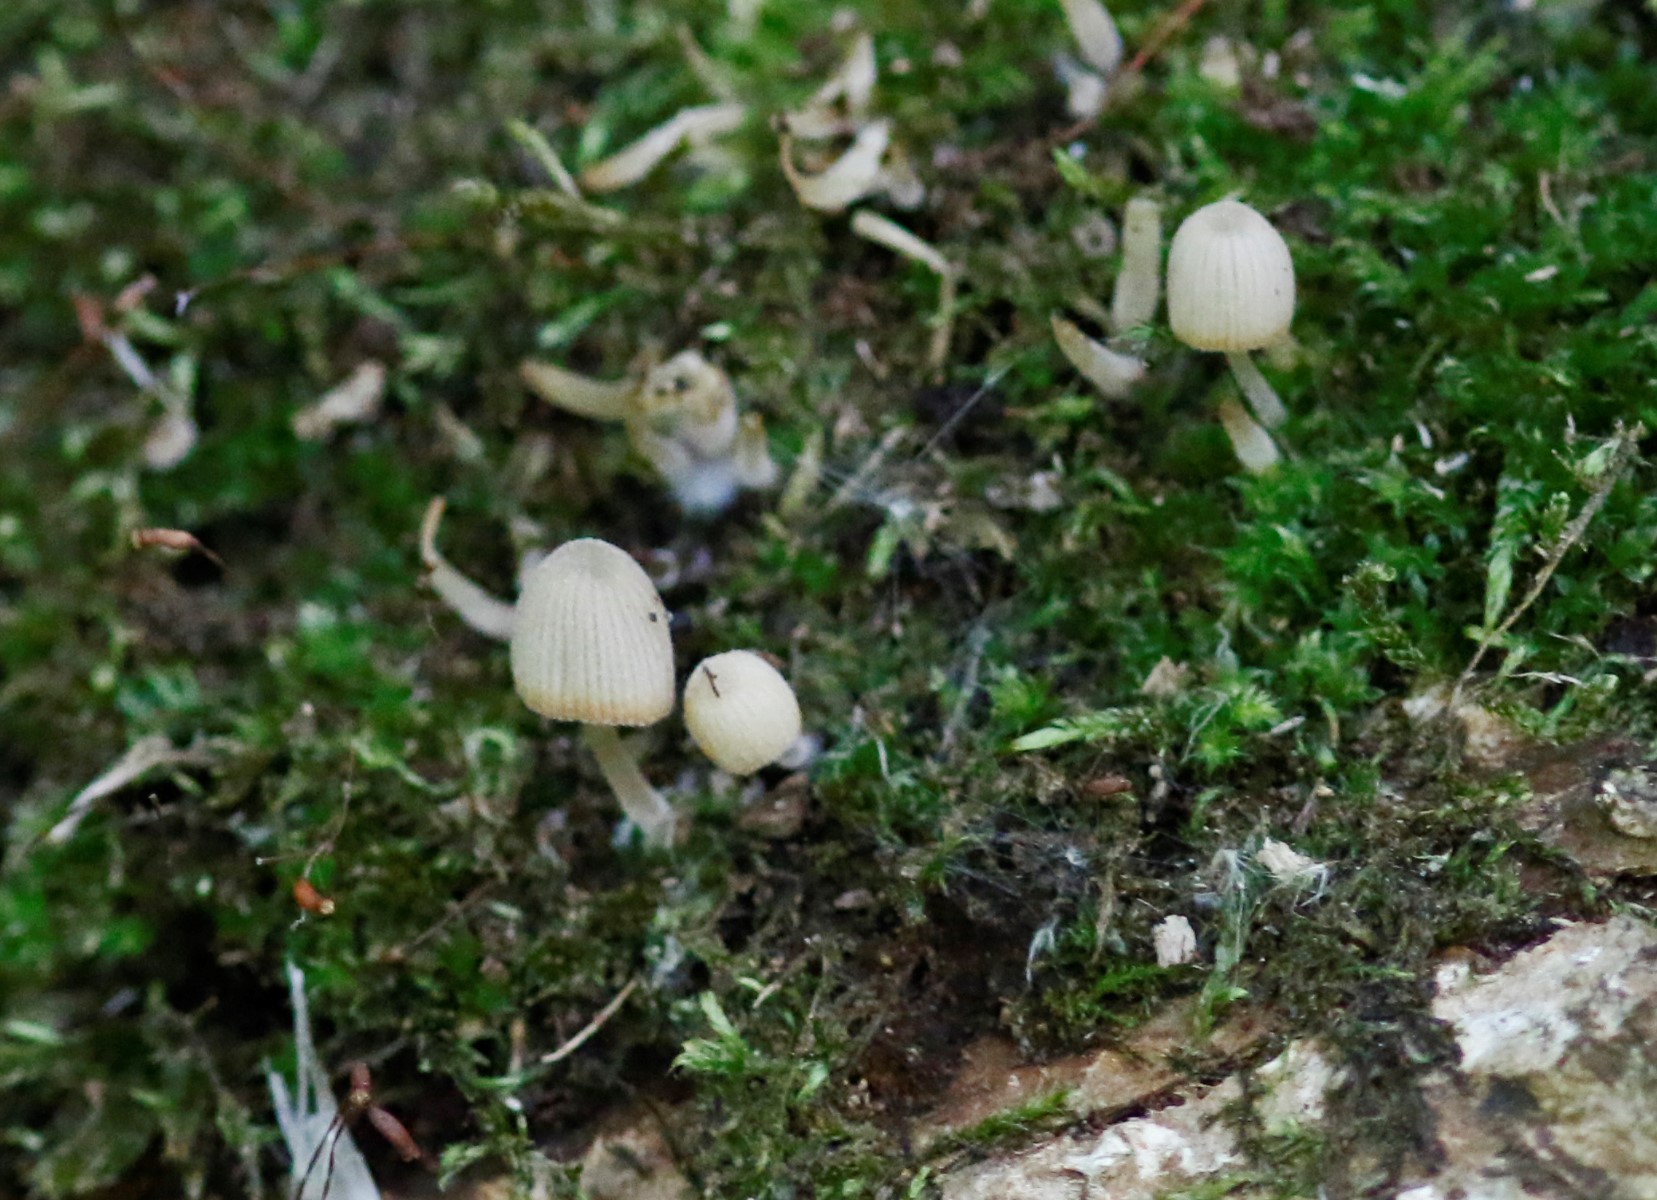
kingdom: Fungi
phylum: Basidiomycota
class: Agaricomycetes
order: Agaricales
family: Psathyrellaceae
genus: Coprinellus
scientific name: Coprinellus disseminatus
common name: bredsået blækhat
